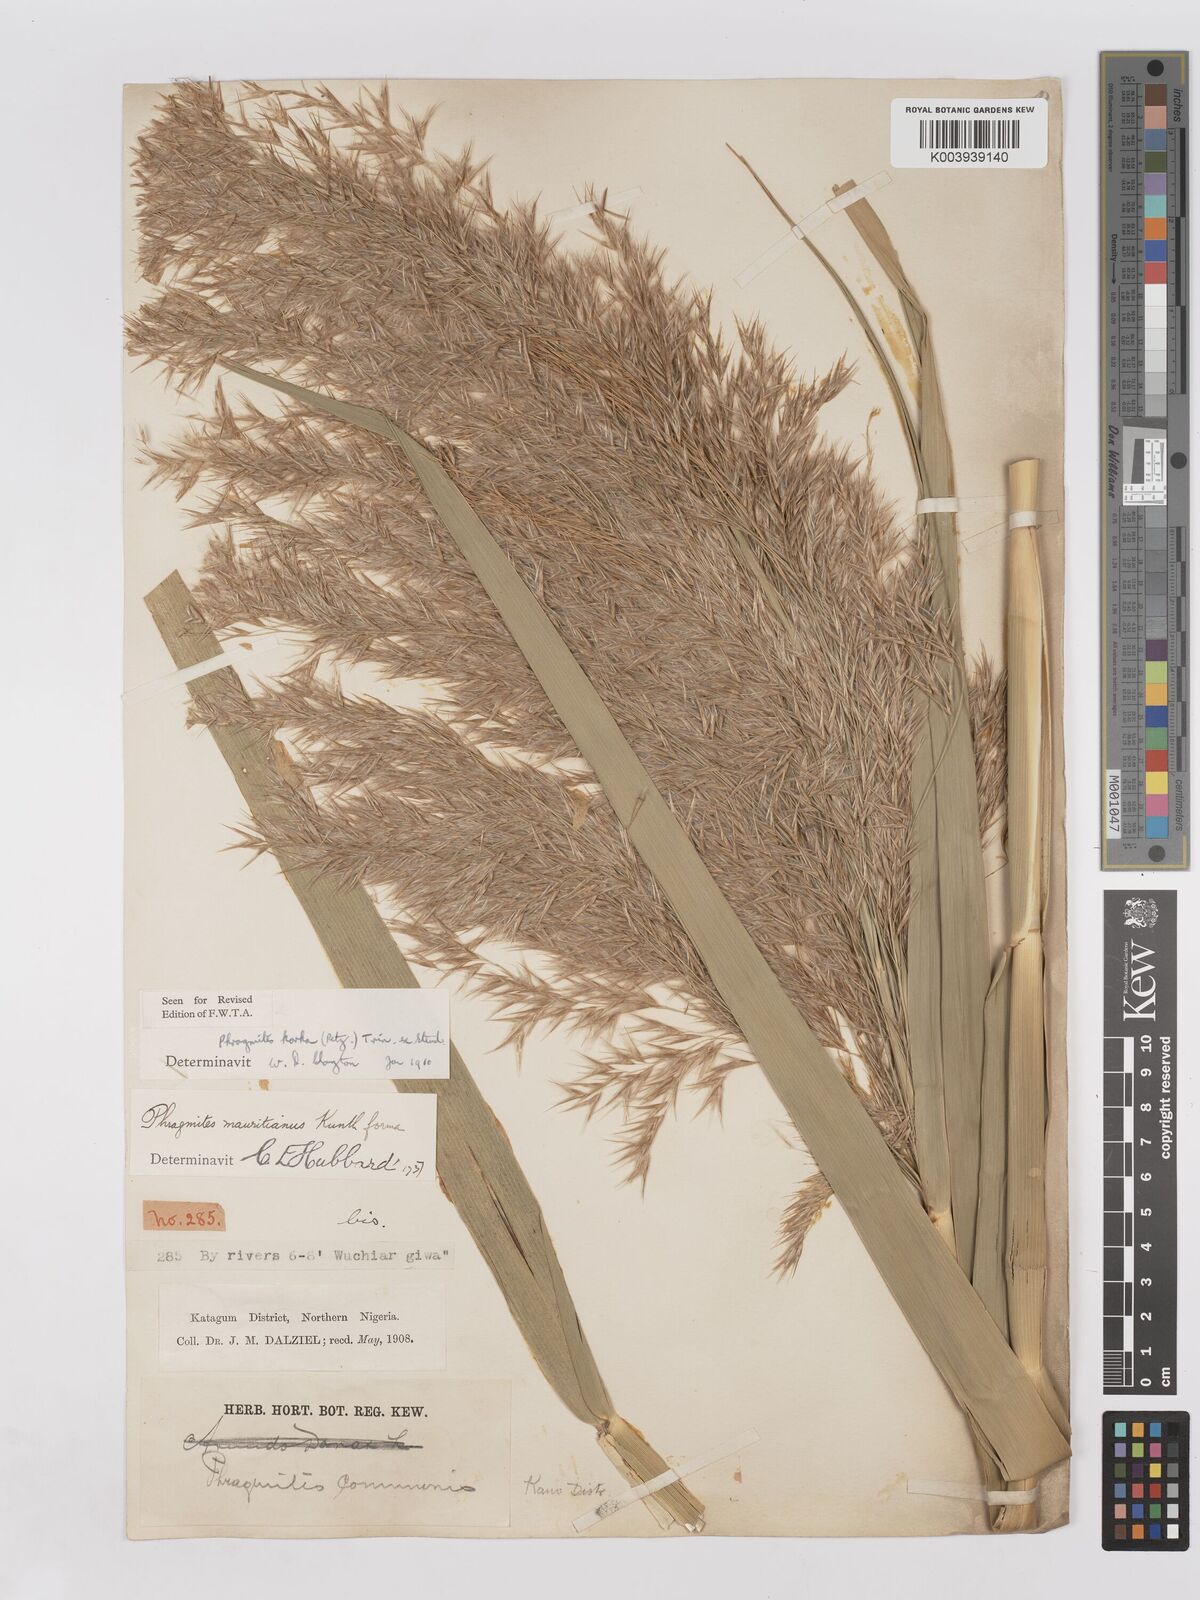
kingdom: Plantae
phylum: Tracheophyta
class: Liliopsida
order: Poales
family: Poaceae
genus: Phragmites
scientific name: Phragmites karka
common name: Tropical reed
